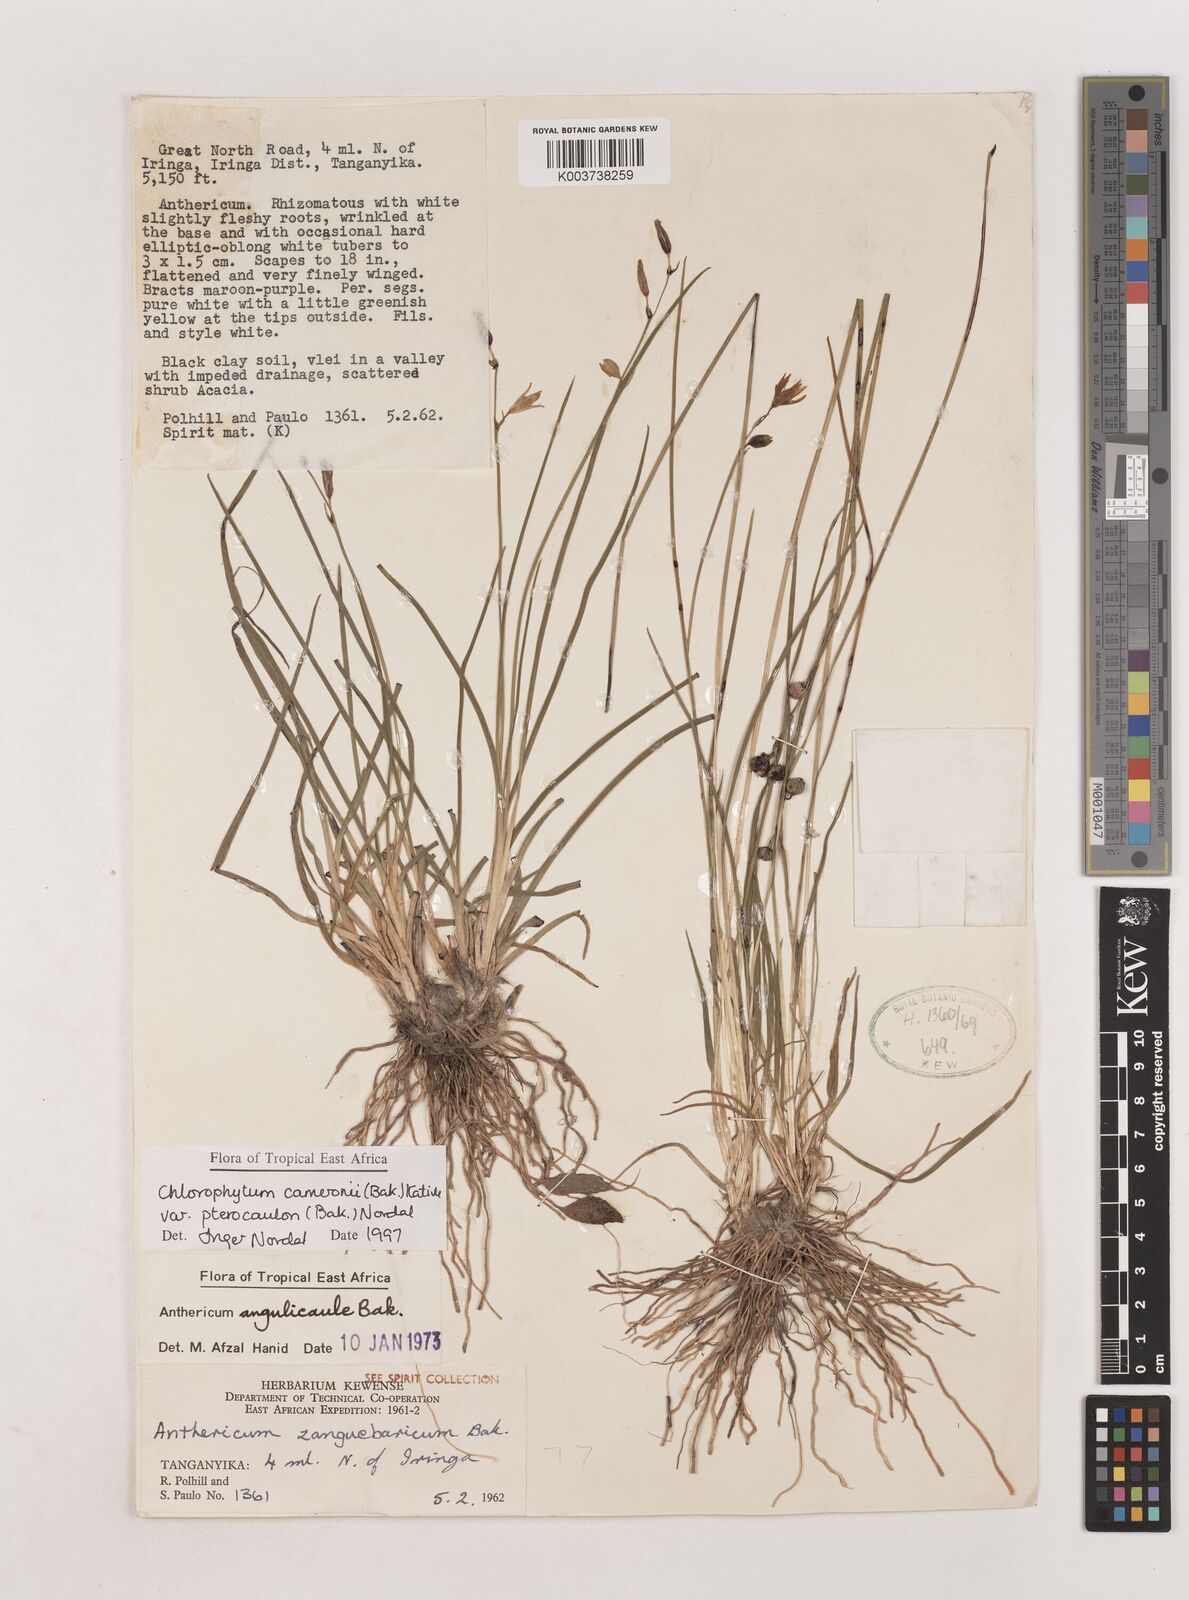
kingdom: Plantae
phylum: Tracheophyta
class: Liliopsida
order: Asparagales
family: Asparagaceae
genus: Chlorophytum
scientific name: Chlorophytum cameronii
